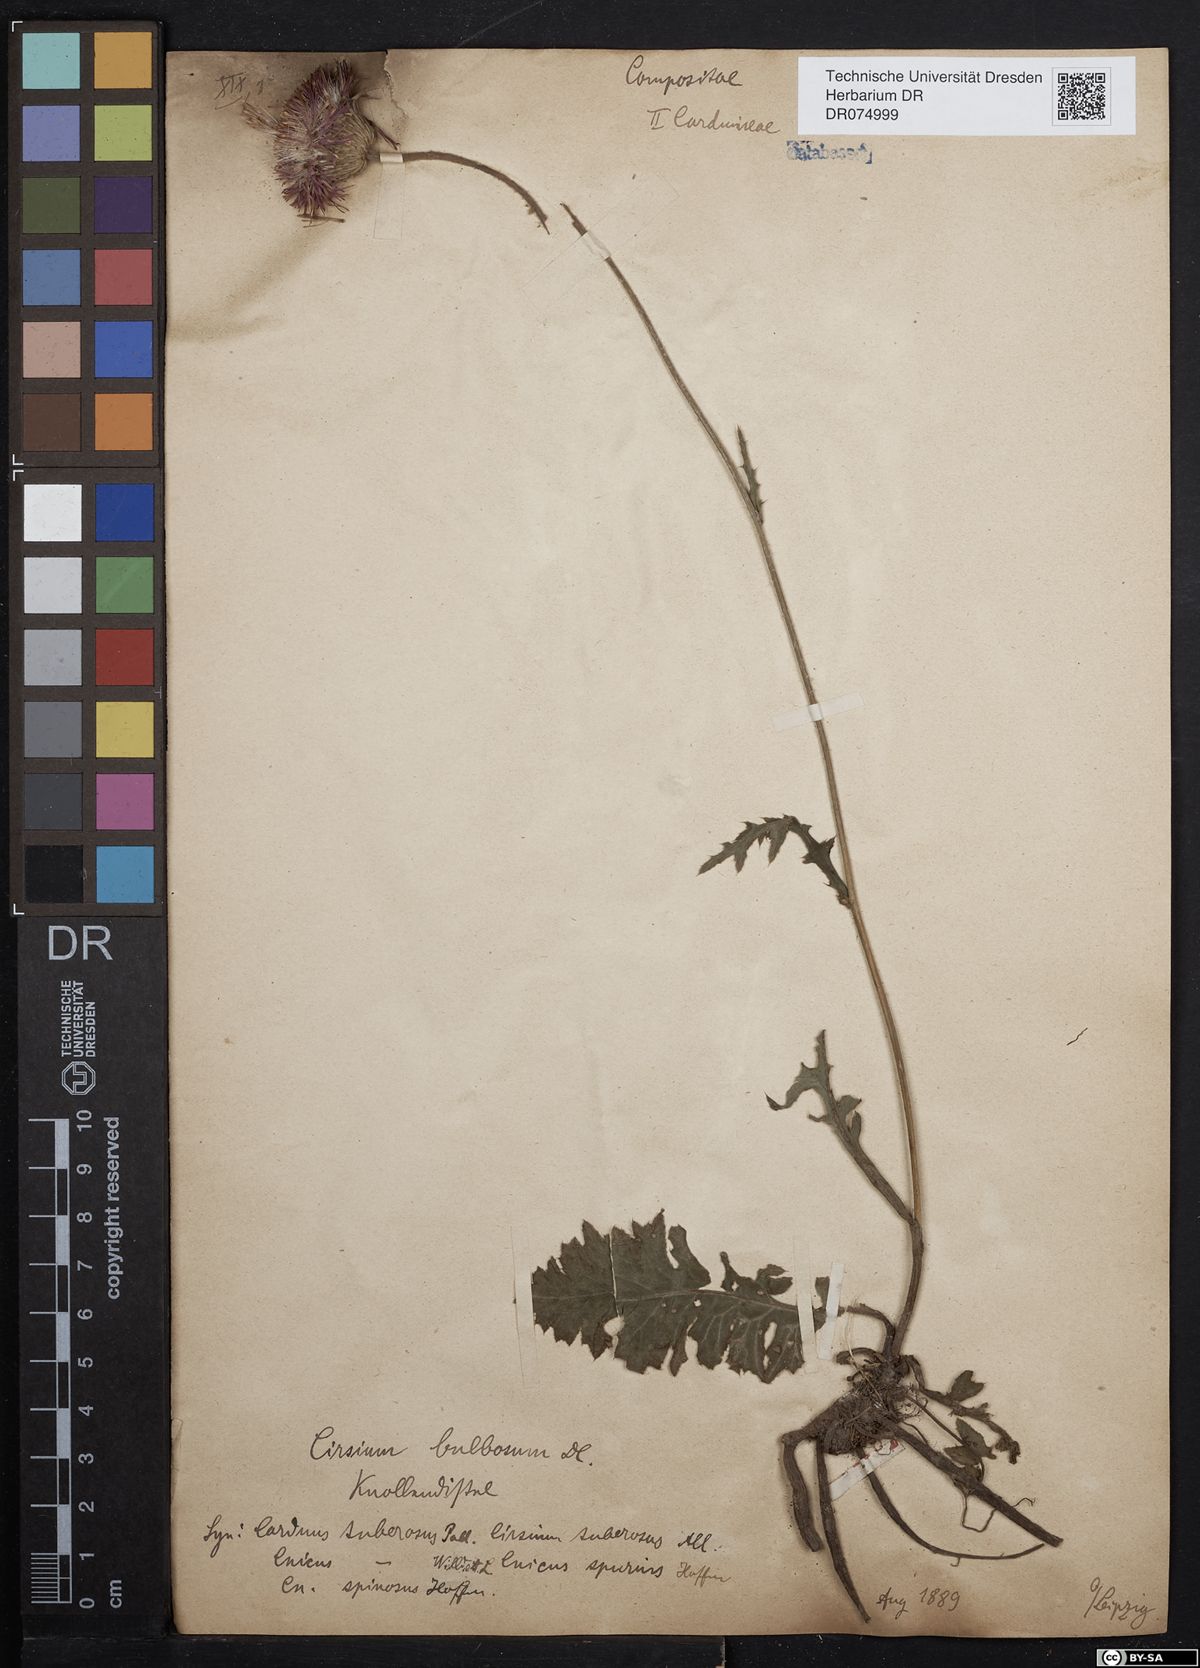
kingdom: Plantae
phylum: Tracheophyta
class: Magnoliopsida
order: Asterales
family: Asteraceae
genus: Cirsium
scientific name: Cirsium tuberosum
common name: Tuberous thistle
